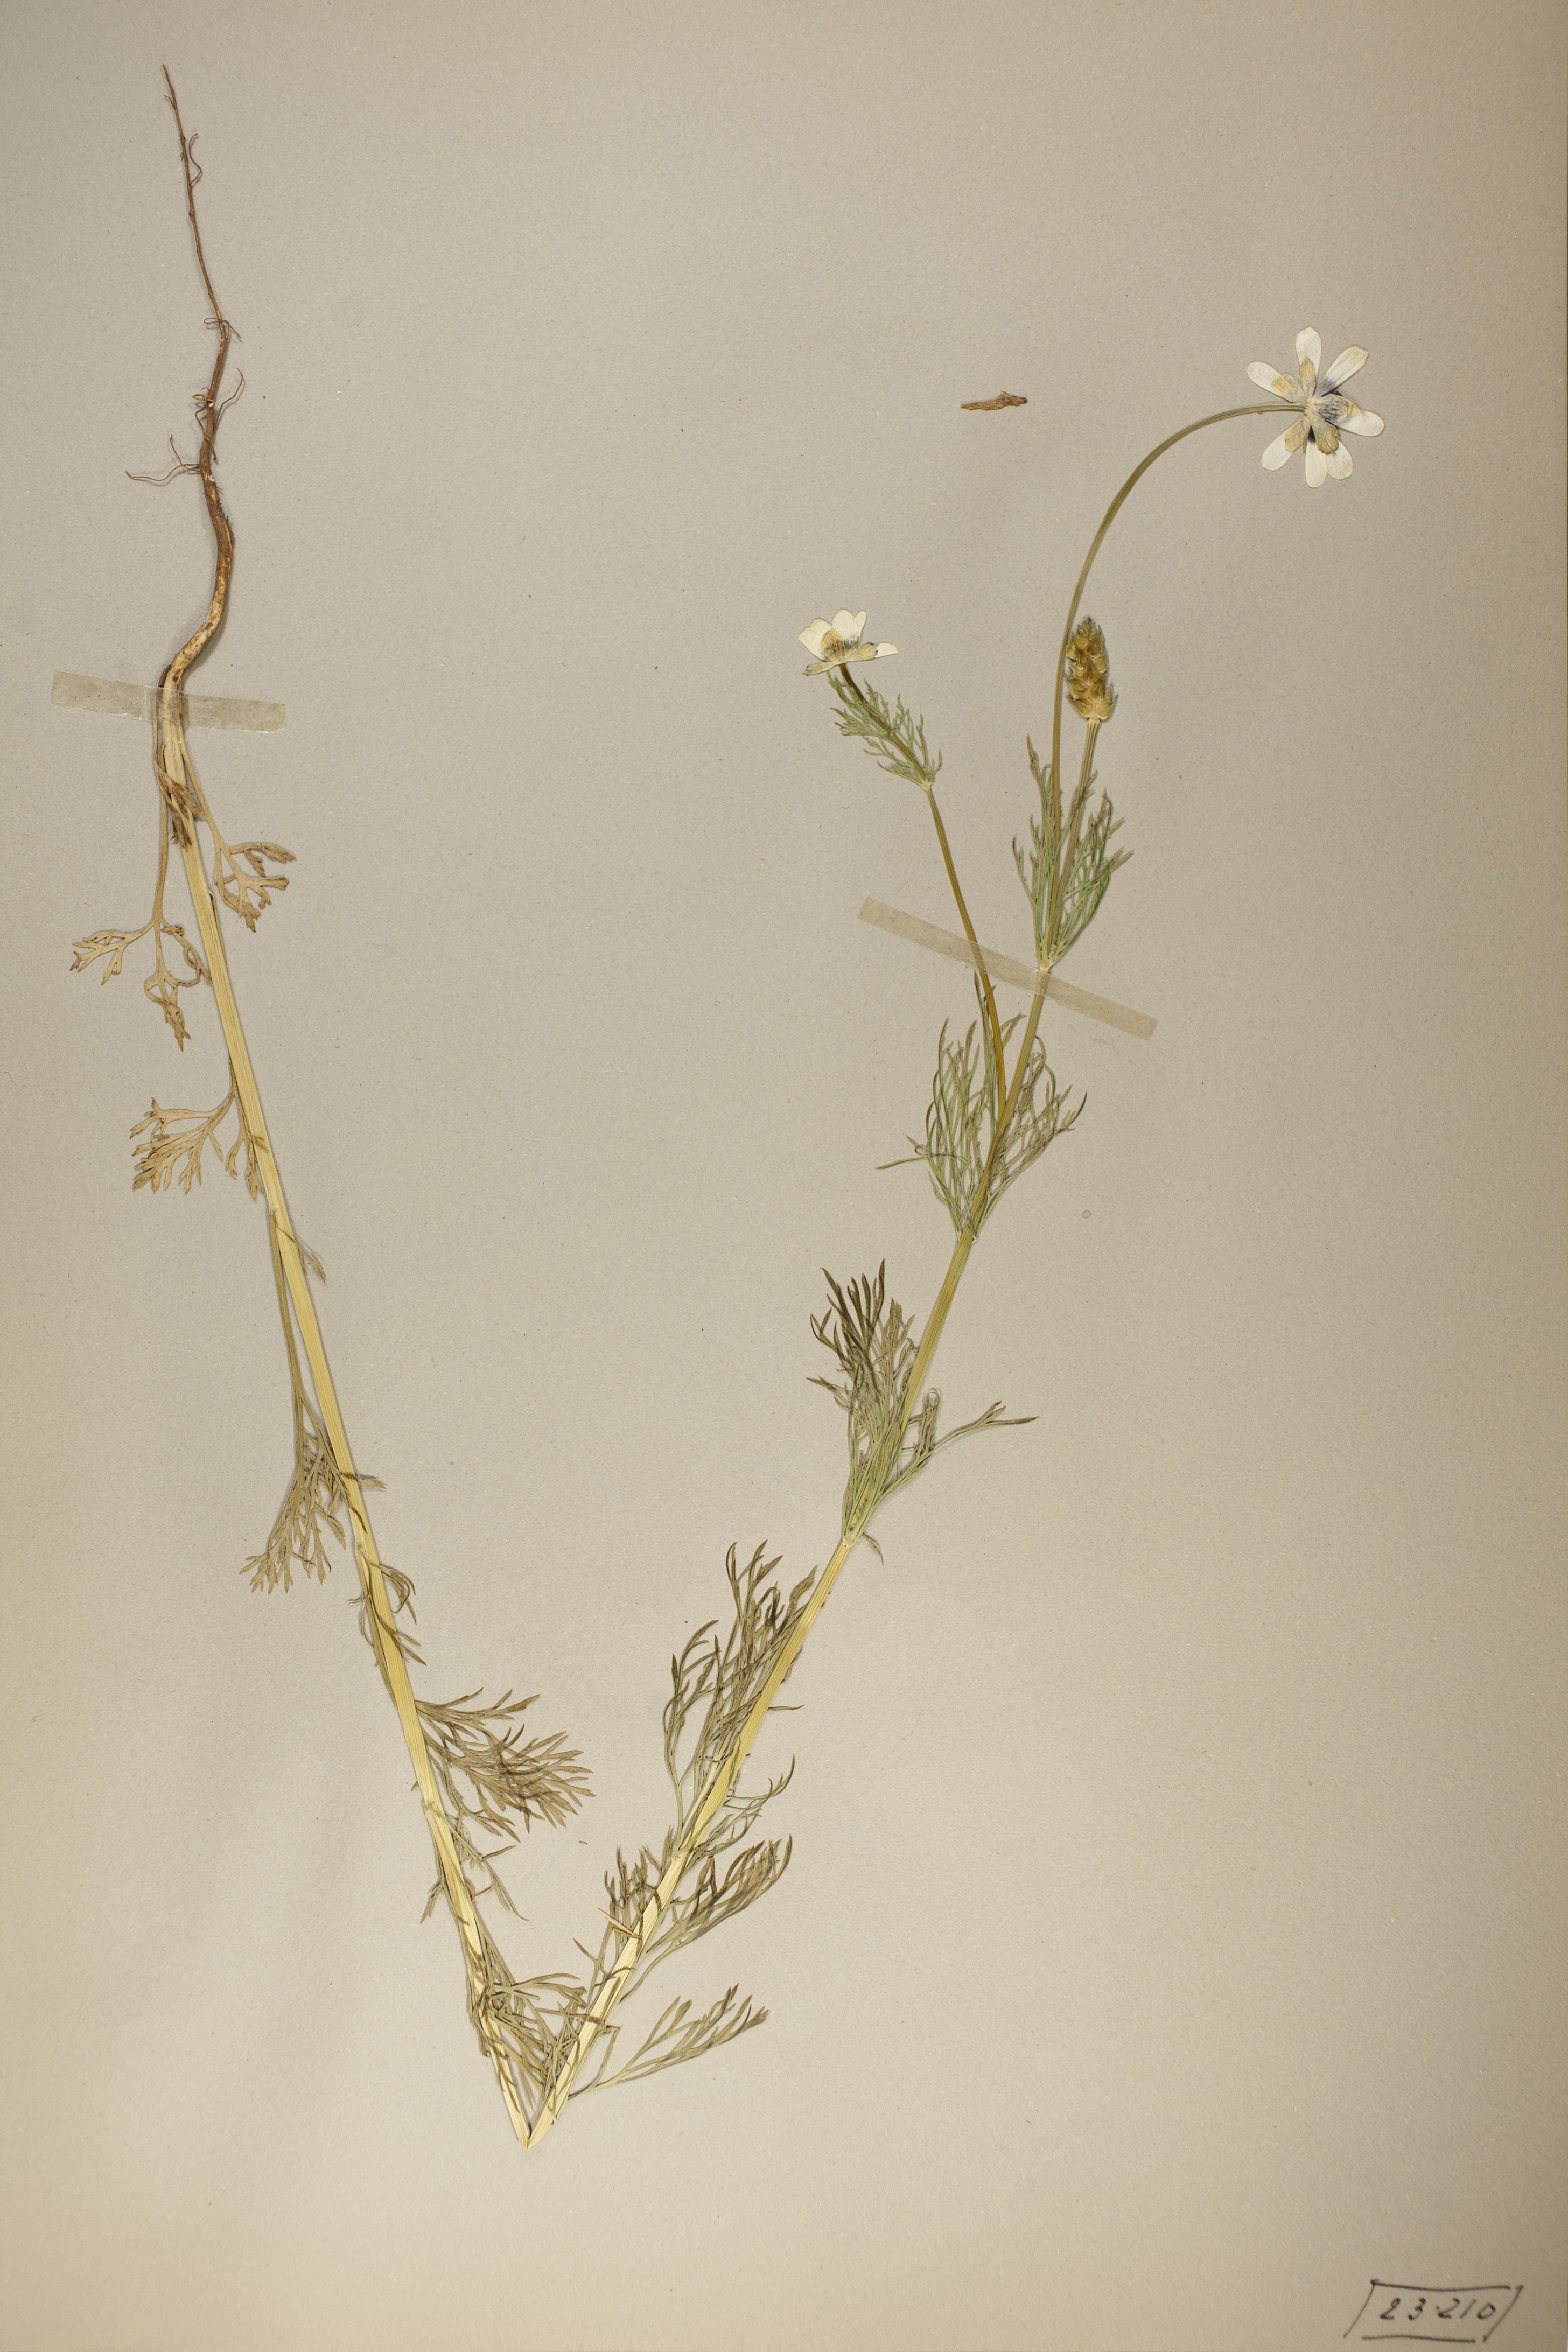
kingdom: Plantae
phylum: Tracheophyta
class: Magnoliopsida
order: Ranunculales
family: Ranunculaceae
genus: Adonis
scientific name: Adonis aestivalis
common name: Summer pheasant's-eye
